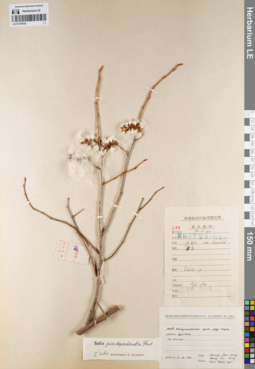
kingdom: Plantae
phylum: Tracheophyta
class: Magnoliopsida
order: Malpighiales
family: Salicaceae
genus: Salix
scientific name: Salix pseudopentandra
